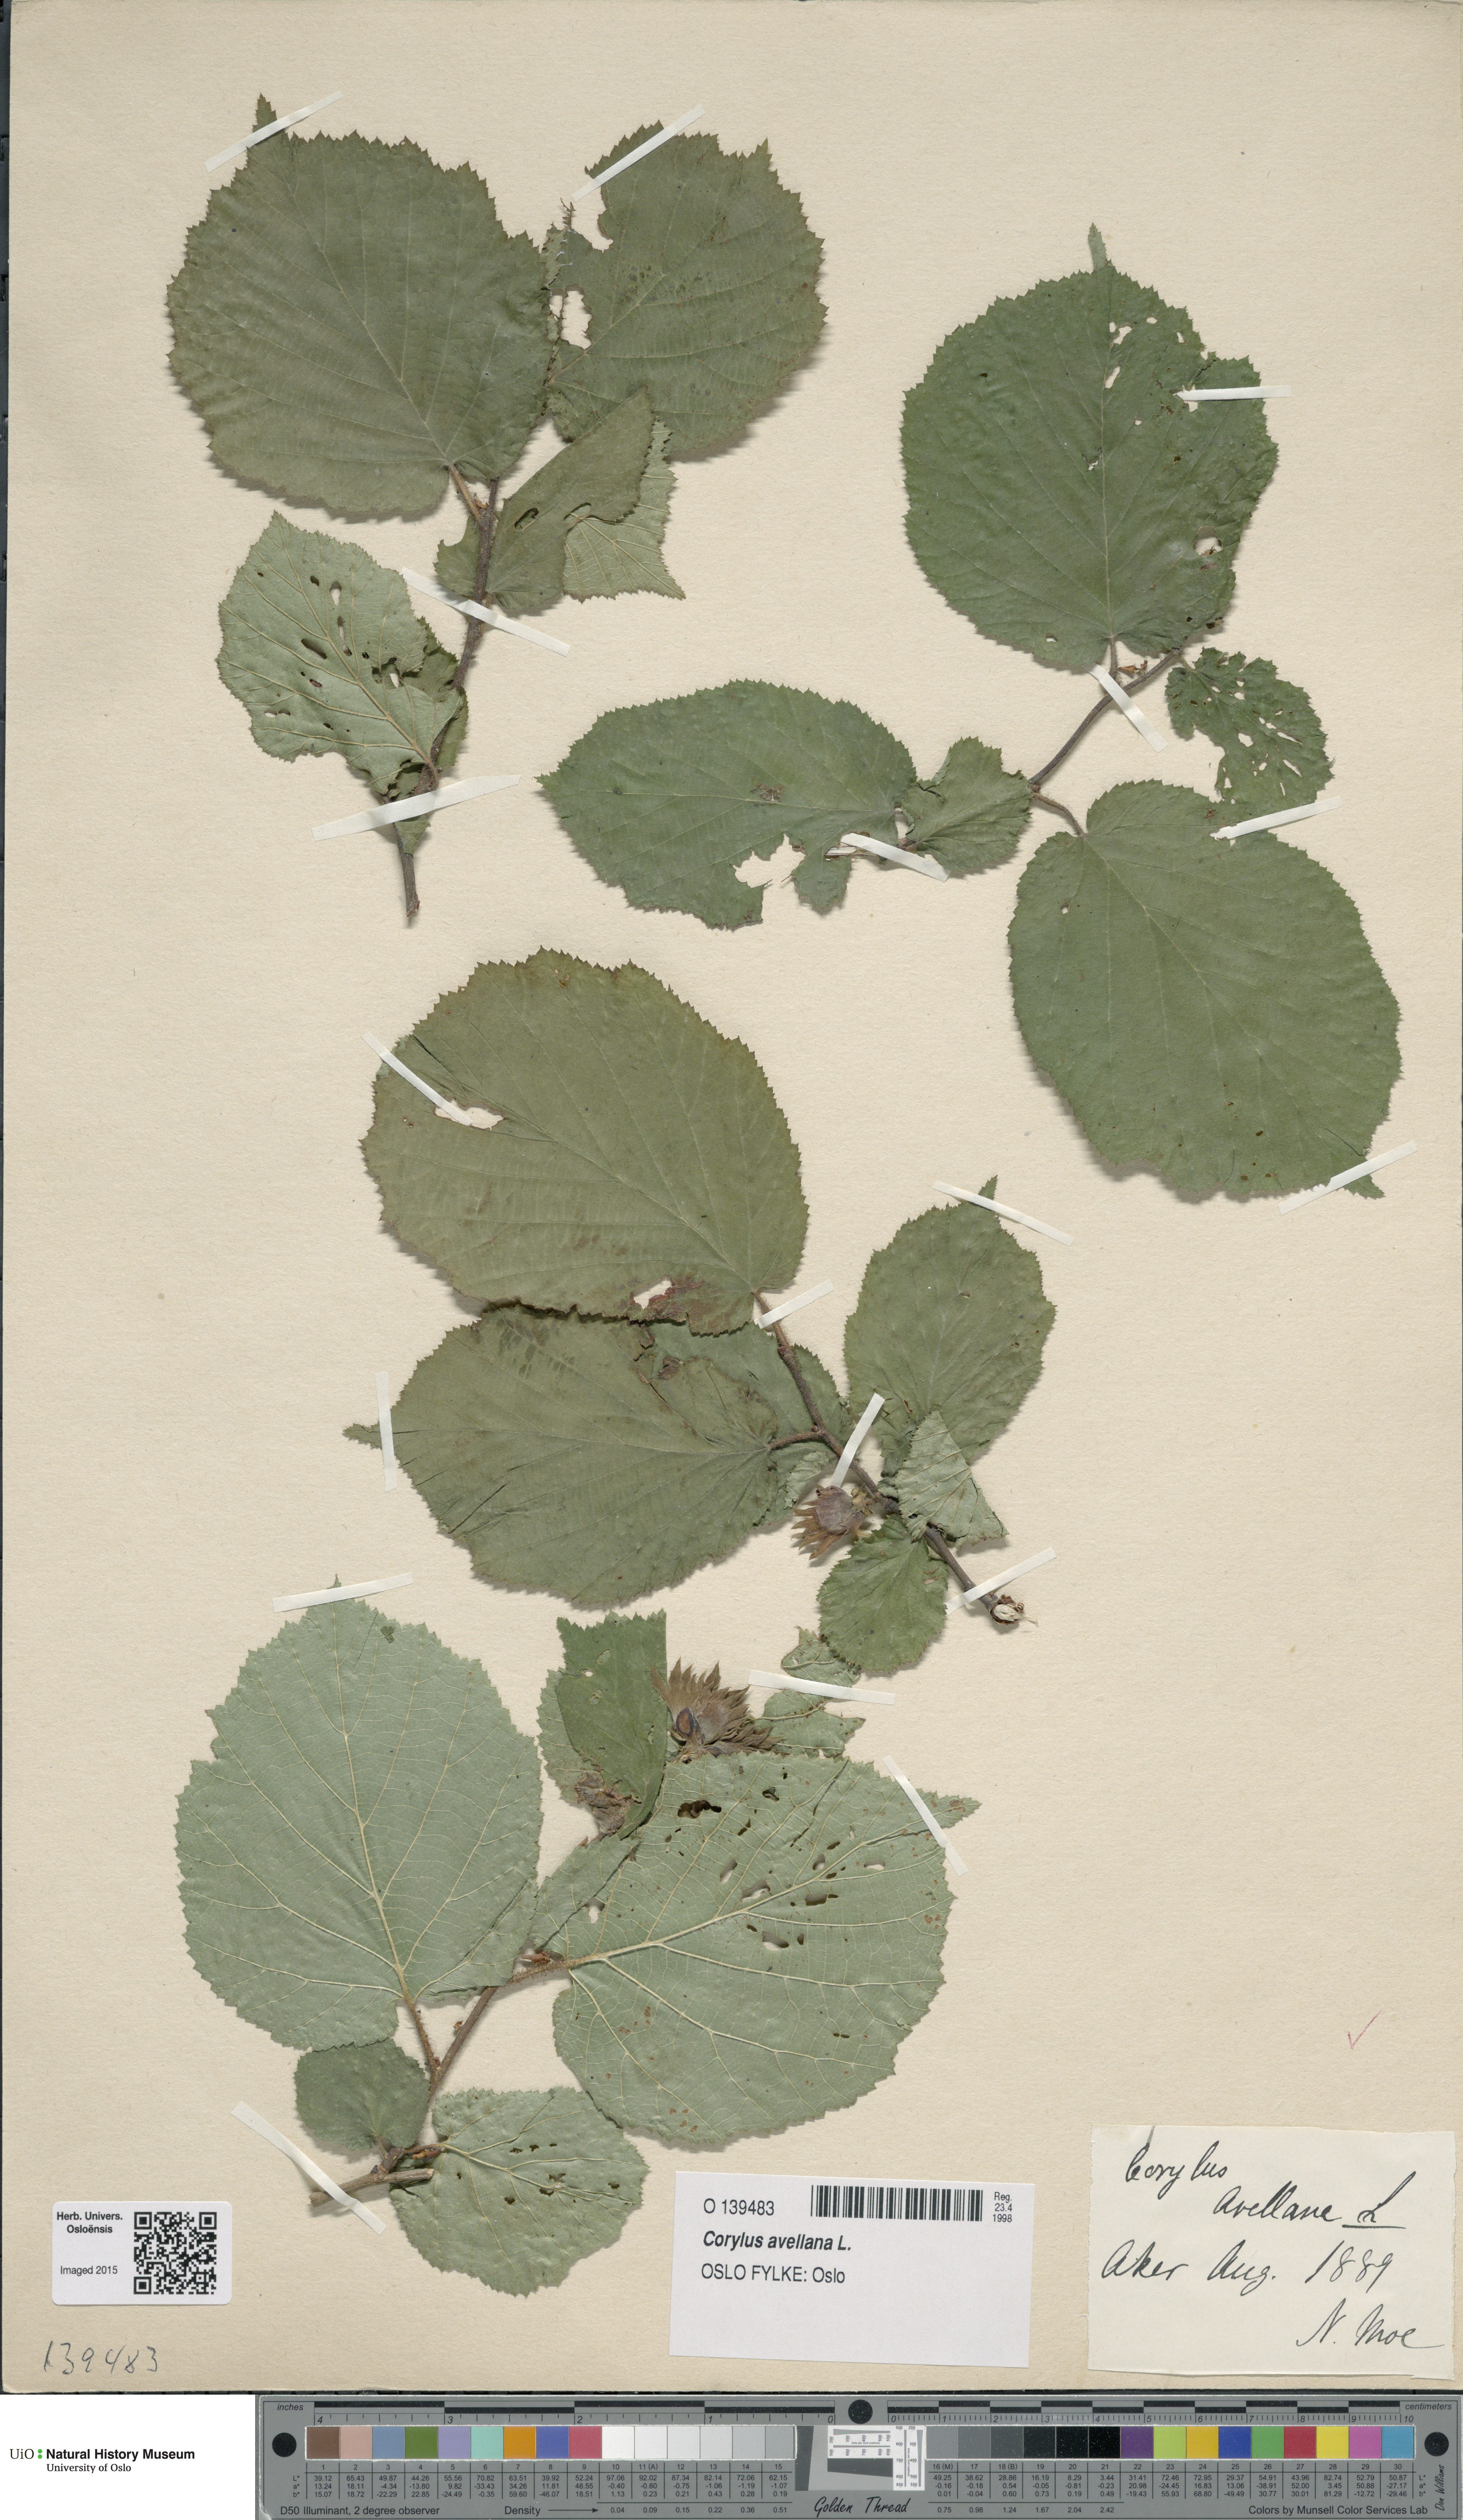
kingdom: Plantae
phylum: Tracheophyta
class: Magnoliopsida
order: Fagales
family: Betulaceae
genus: Corylus
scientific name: Corylus avellana
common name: European hazel
